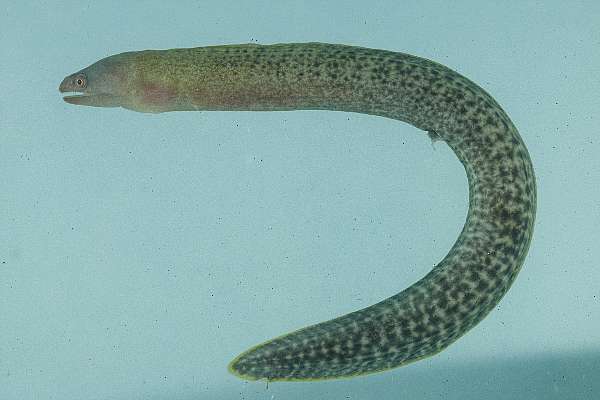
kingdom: Animalia
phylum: Chordata
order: Anguilliformes
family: Muraenidae
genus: Gymnothorax
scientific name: Gymnothorax buroensis
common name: Latticetail moray
